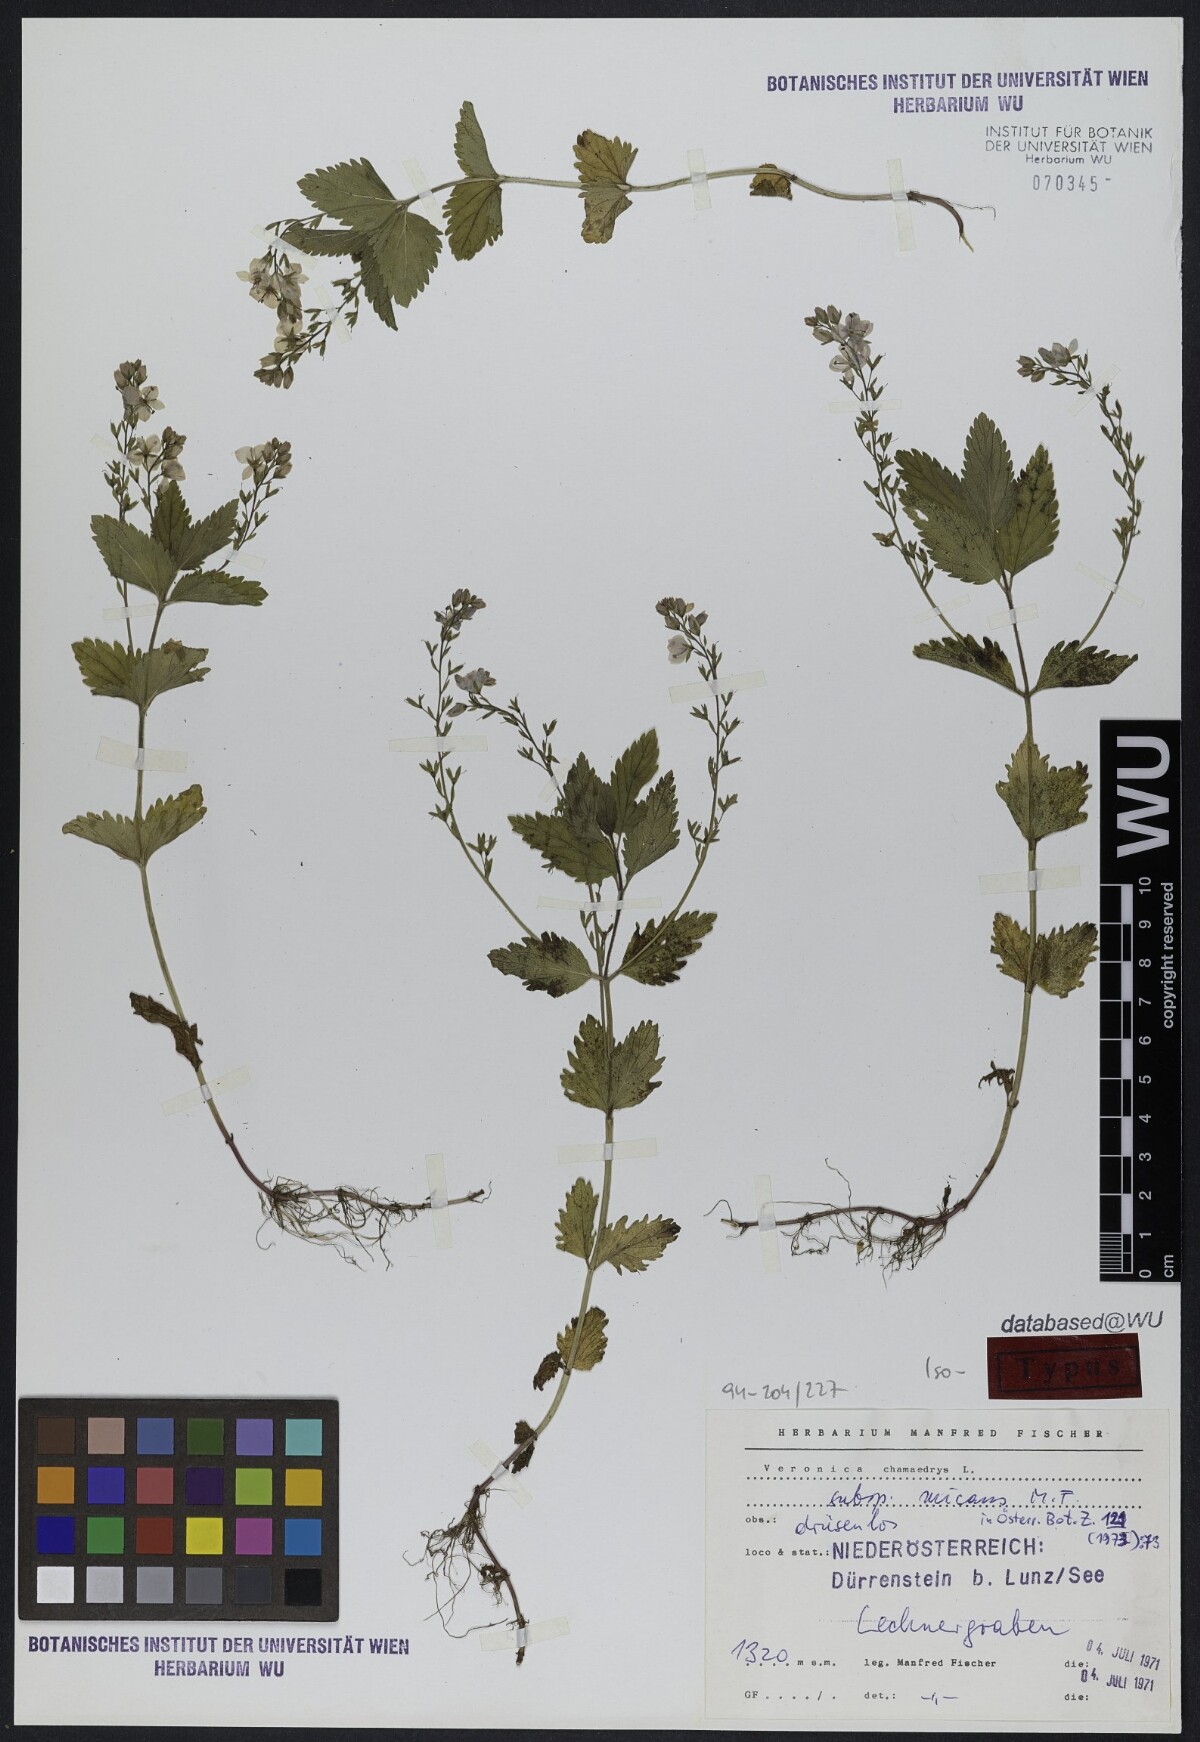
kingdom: Plantae
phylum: Tracheophyta
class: Magnoliopsida
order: Lamiales
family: Plantaginaceae
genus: Veronica
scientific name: Veronica chamaedrys
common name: Germander speedwell
